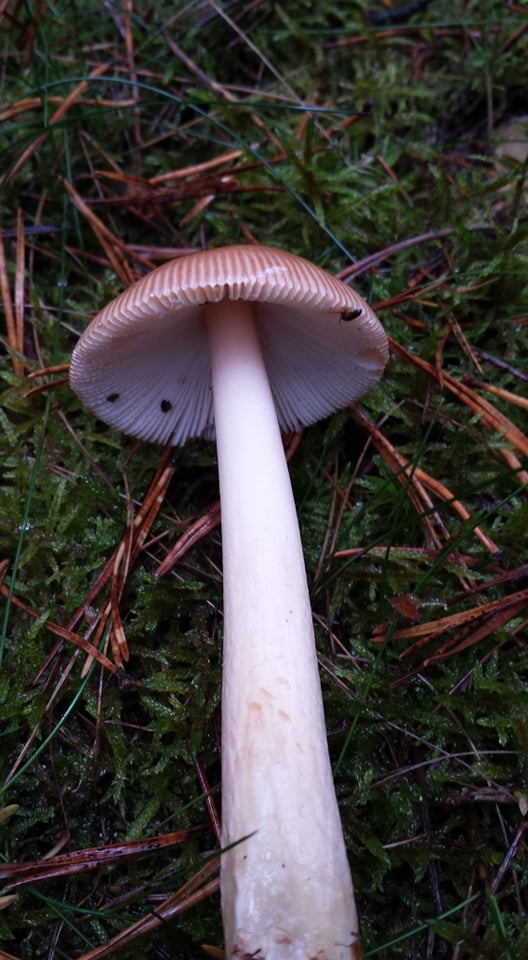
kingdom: Fungi
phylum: Basidiomycota
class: Agaricomycetes
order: Agaricales
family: Amanitaceae
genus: Amanita
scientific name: Amanita fulva
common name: brun kam-fluesvamp
